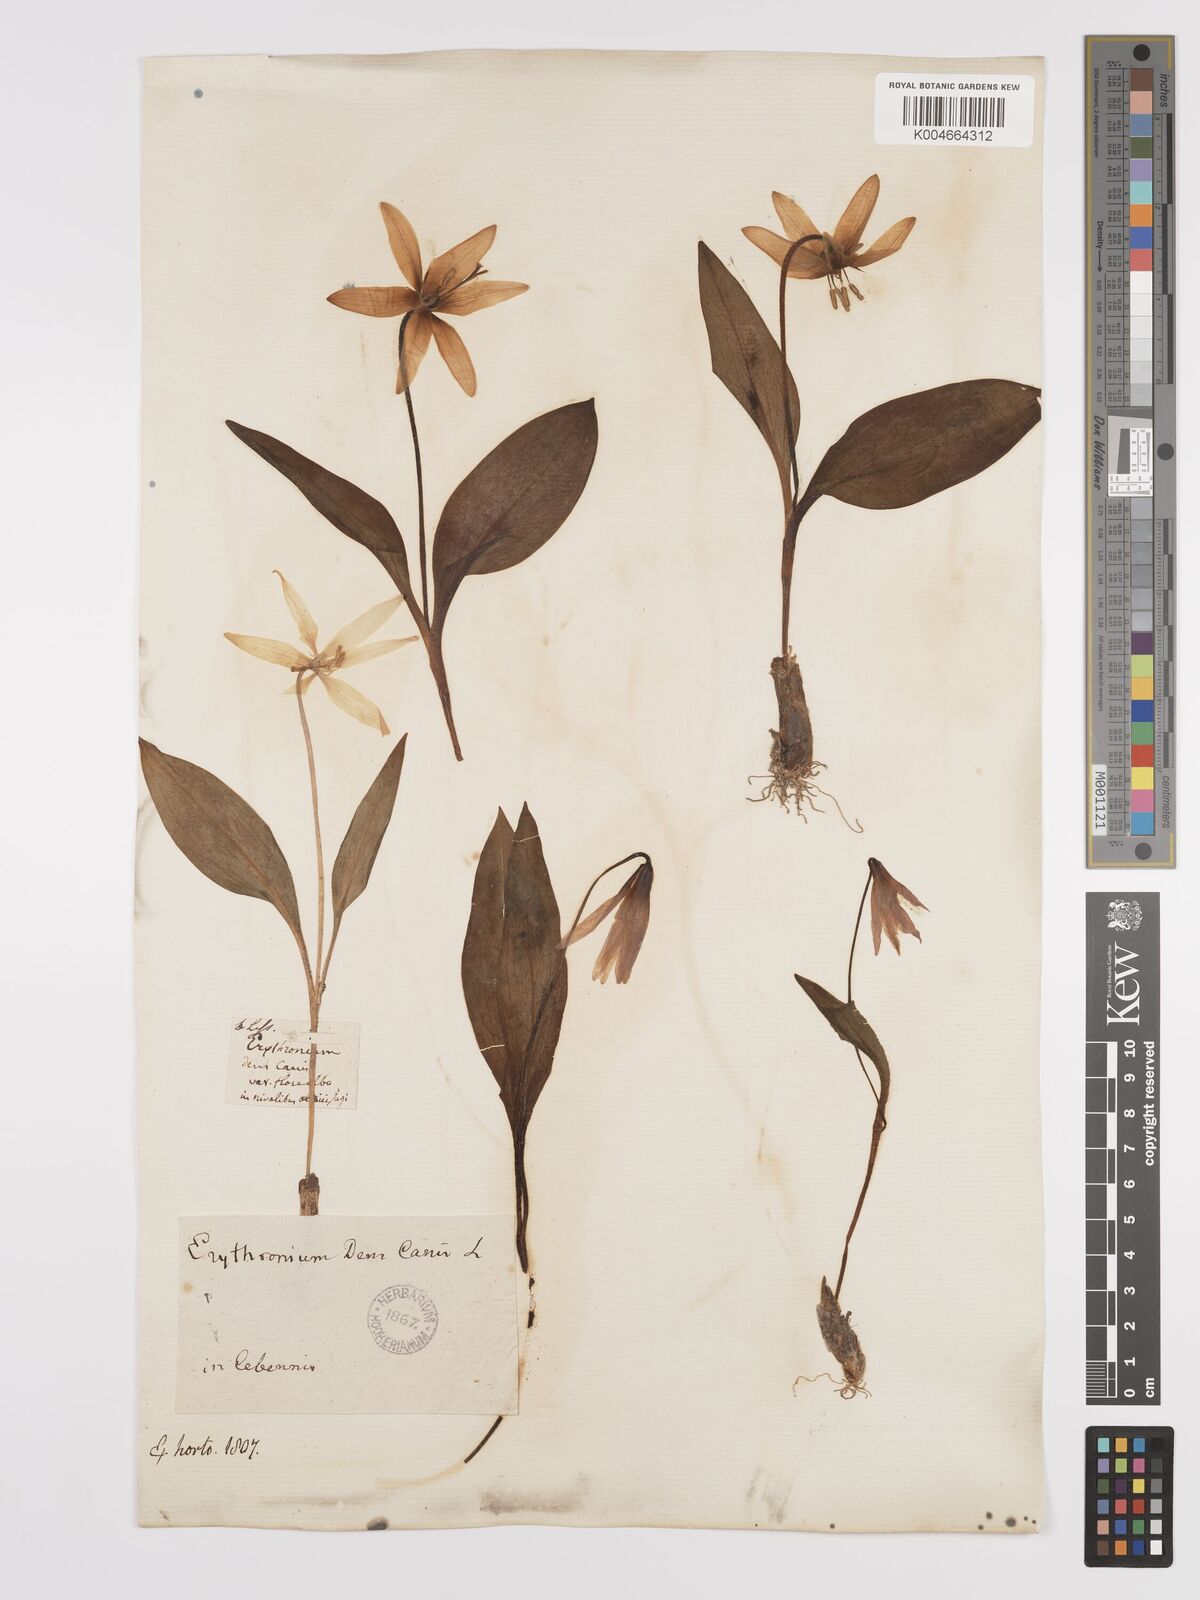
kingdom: Plantae
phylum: Tracheophyta
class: Liliopsida
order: Liliales
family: Liliaceae
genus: Erythronium
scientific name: Erythronium dens-canis
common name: Dog's-tooth-violet
